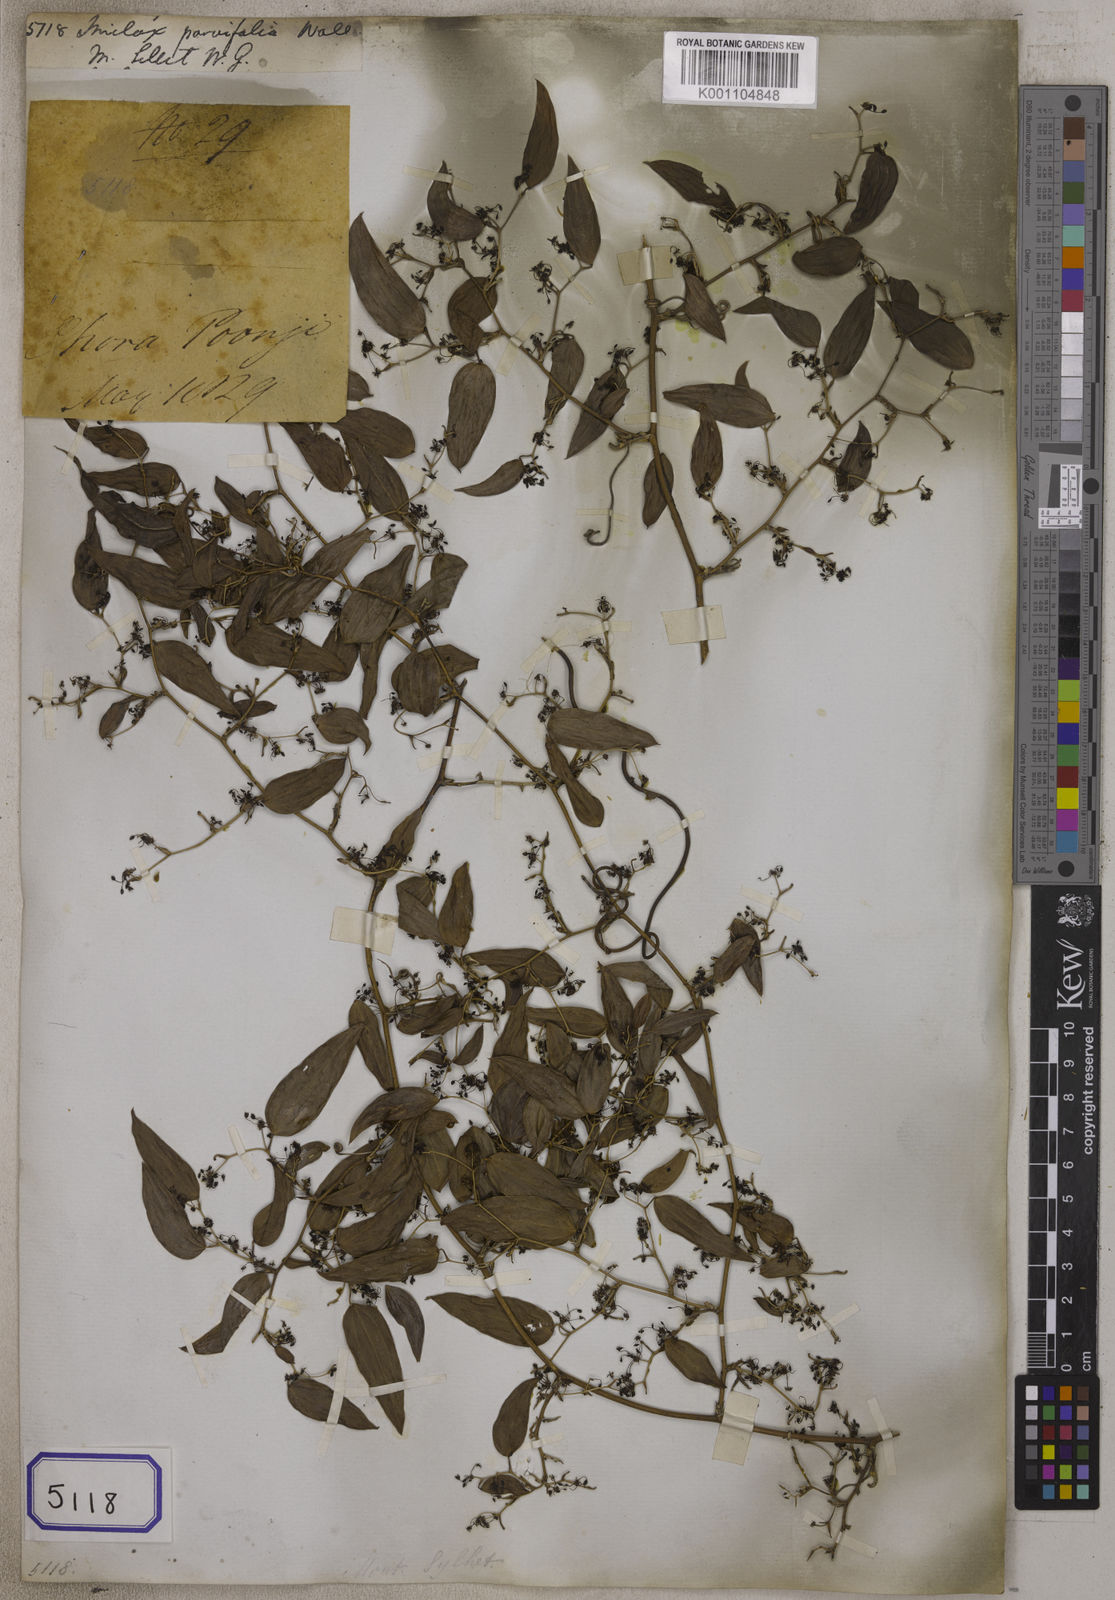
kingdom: Plantae
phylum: Tracheophyta
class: Liliopsida
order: Liliales
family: Smilacaceae
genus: Smilax
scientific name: Smilax
